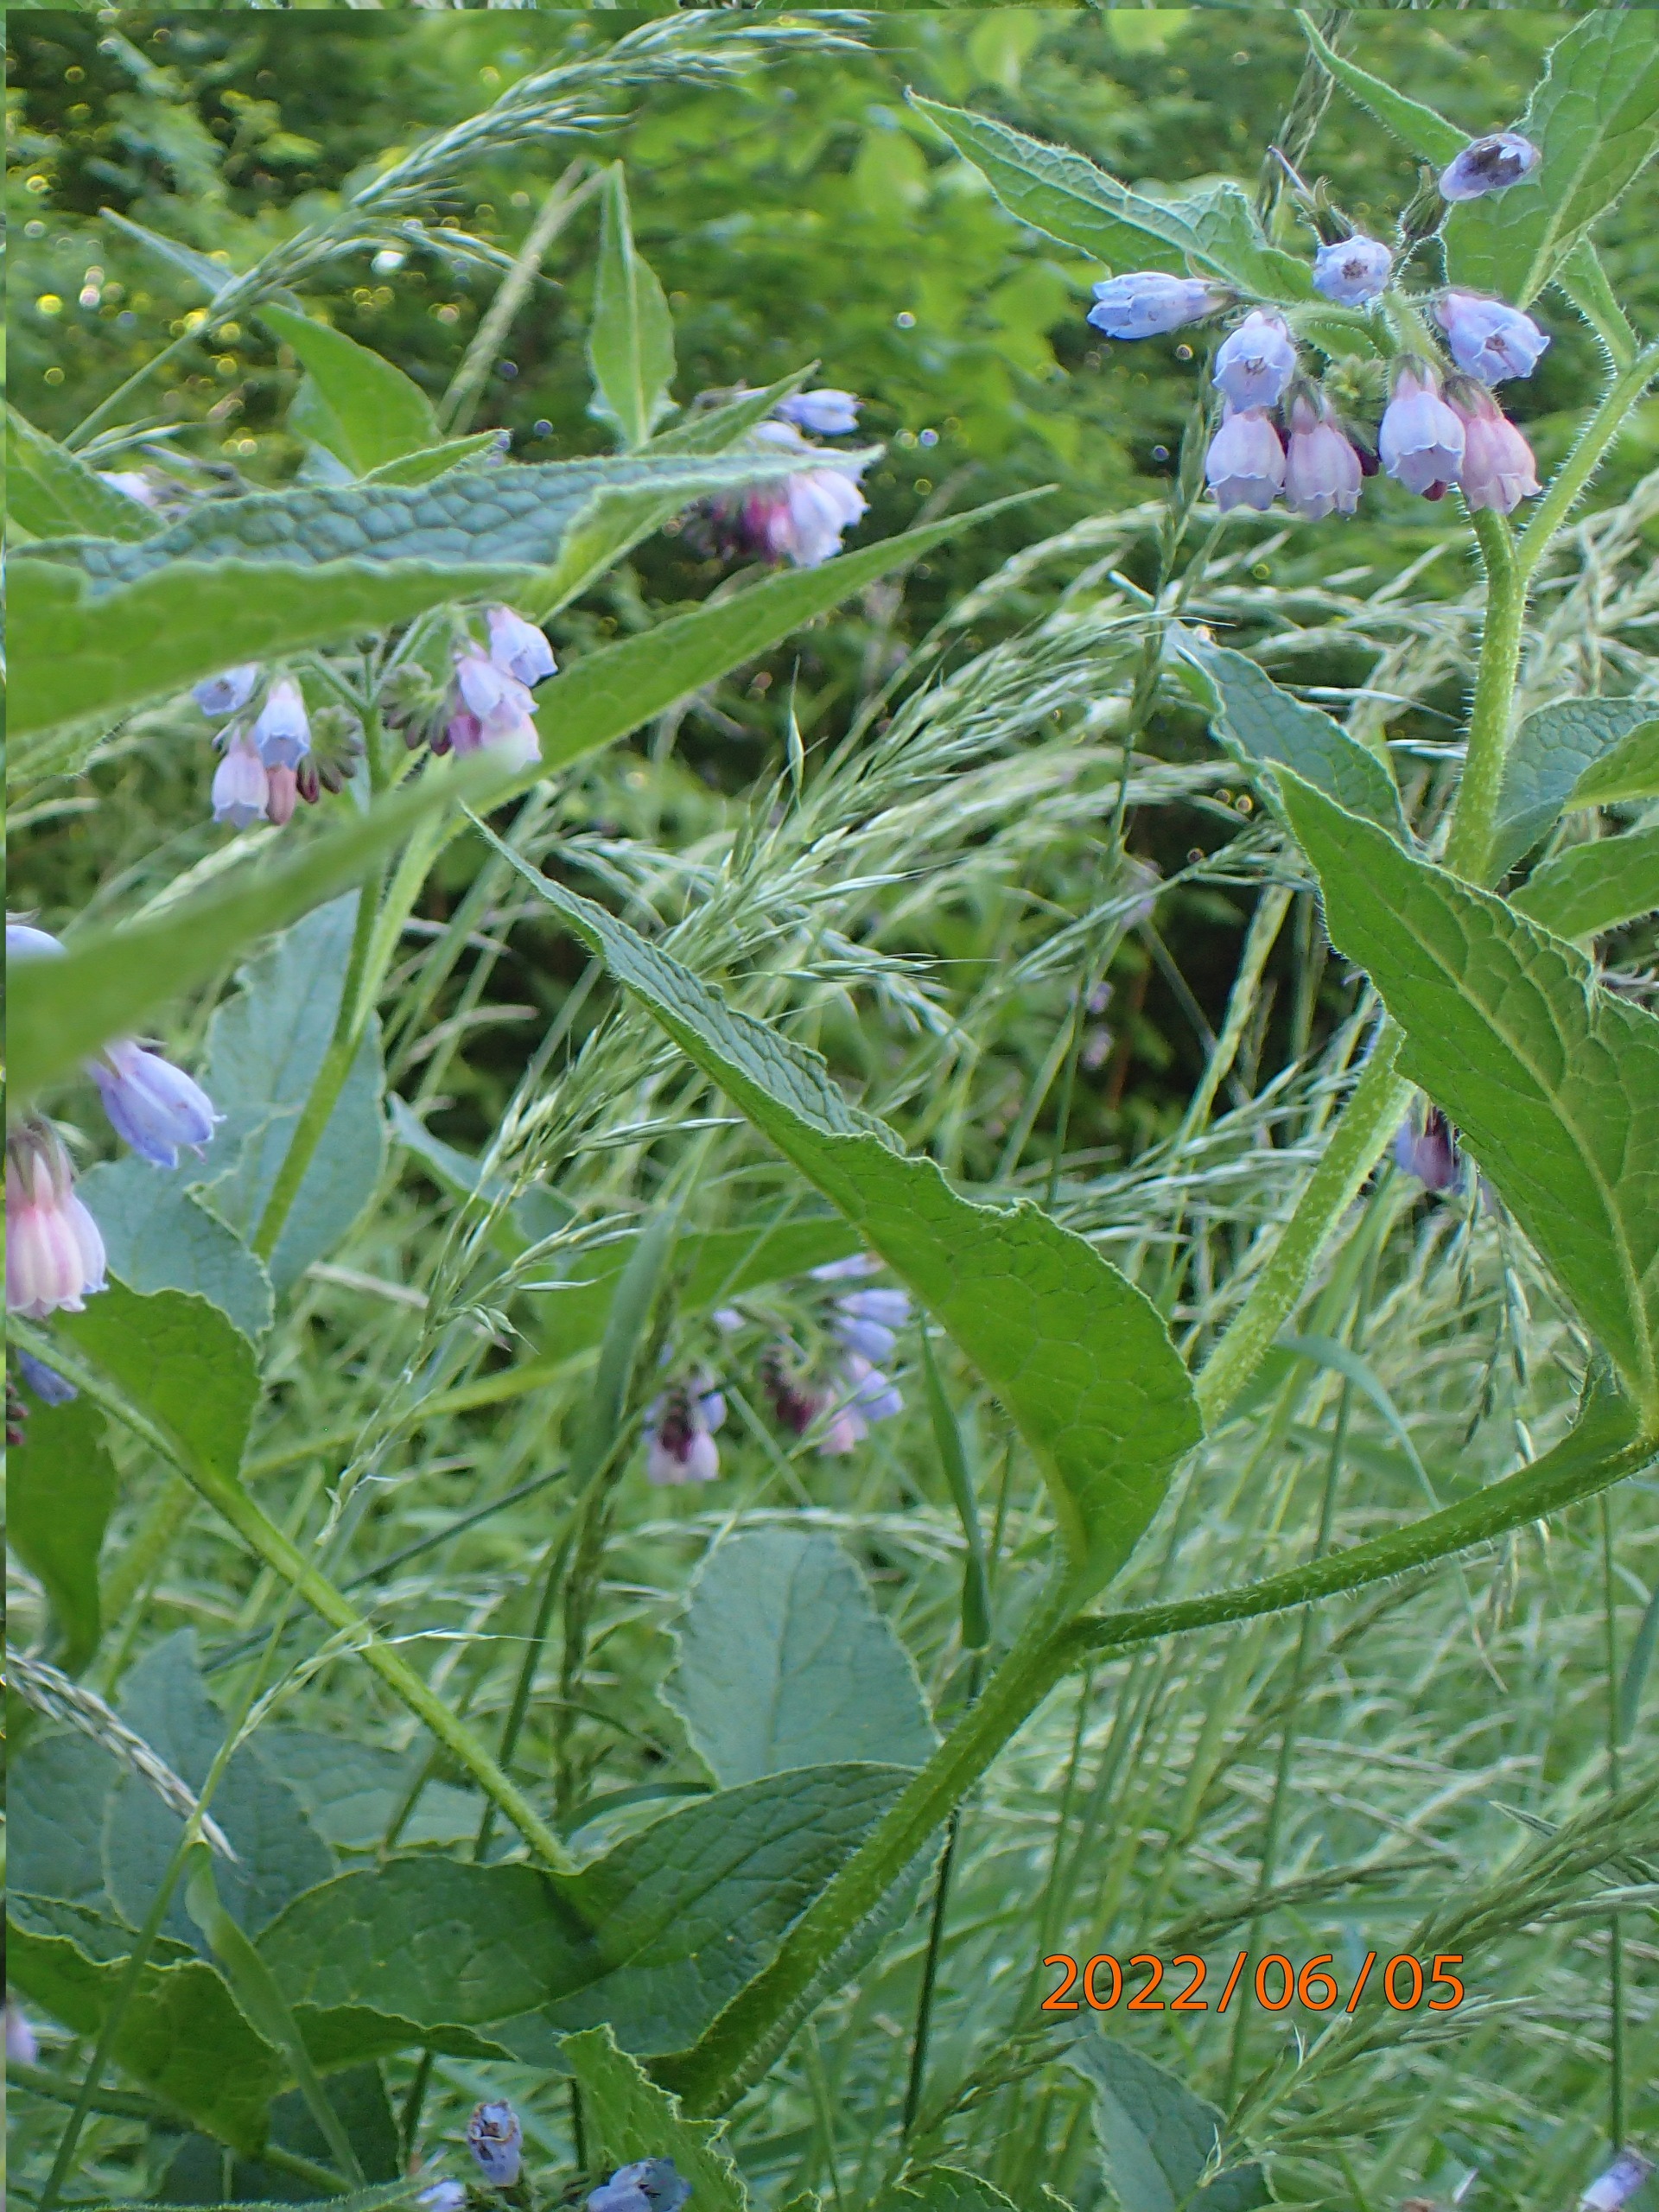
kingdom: Plantae
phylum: Tracheophyta
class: Magnoliopsida
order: Boraginales
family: Boraginaceae
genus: Symphytum
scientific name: Symphytum uplandicum
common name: Foder-kulsukker
